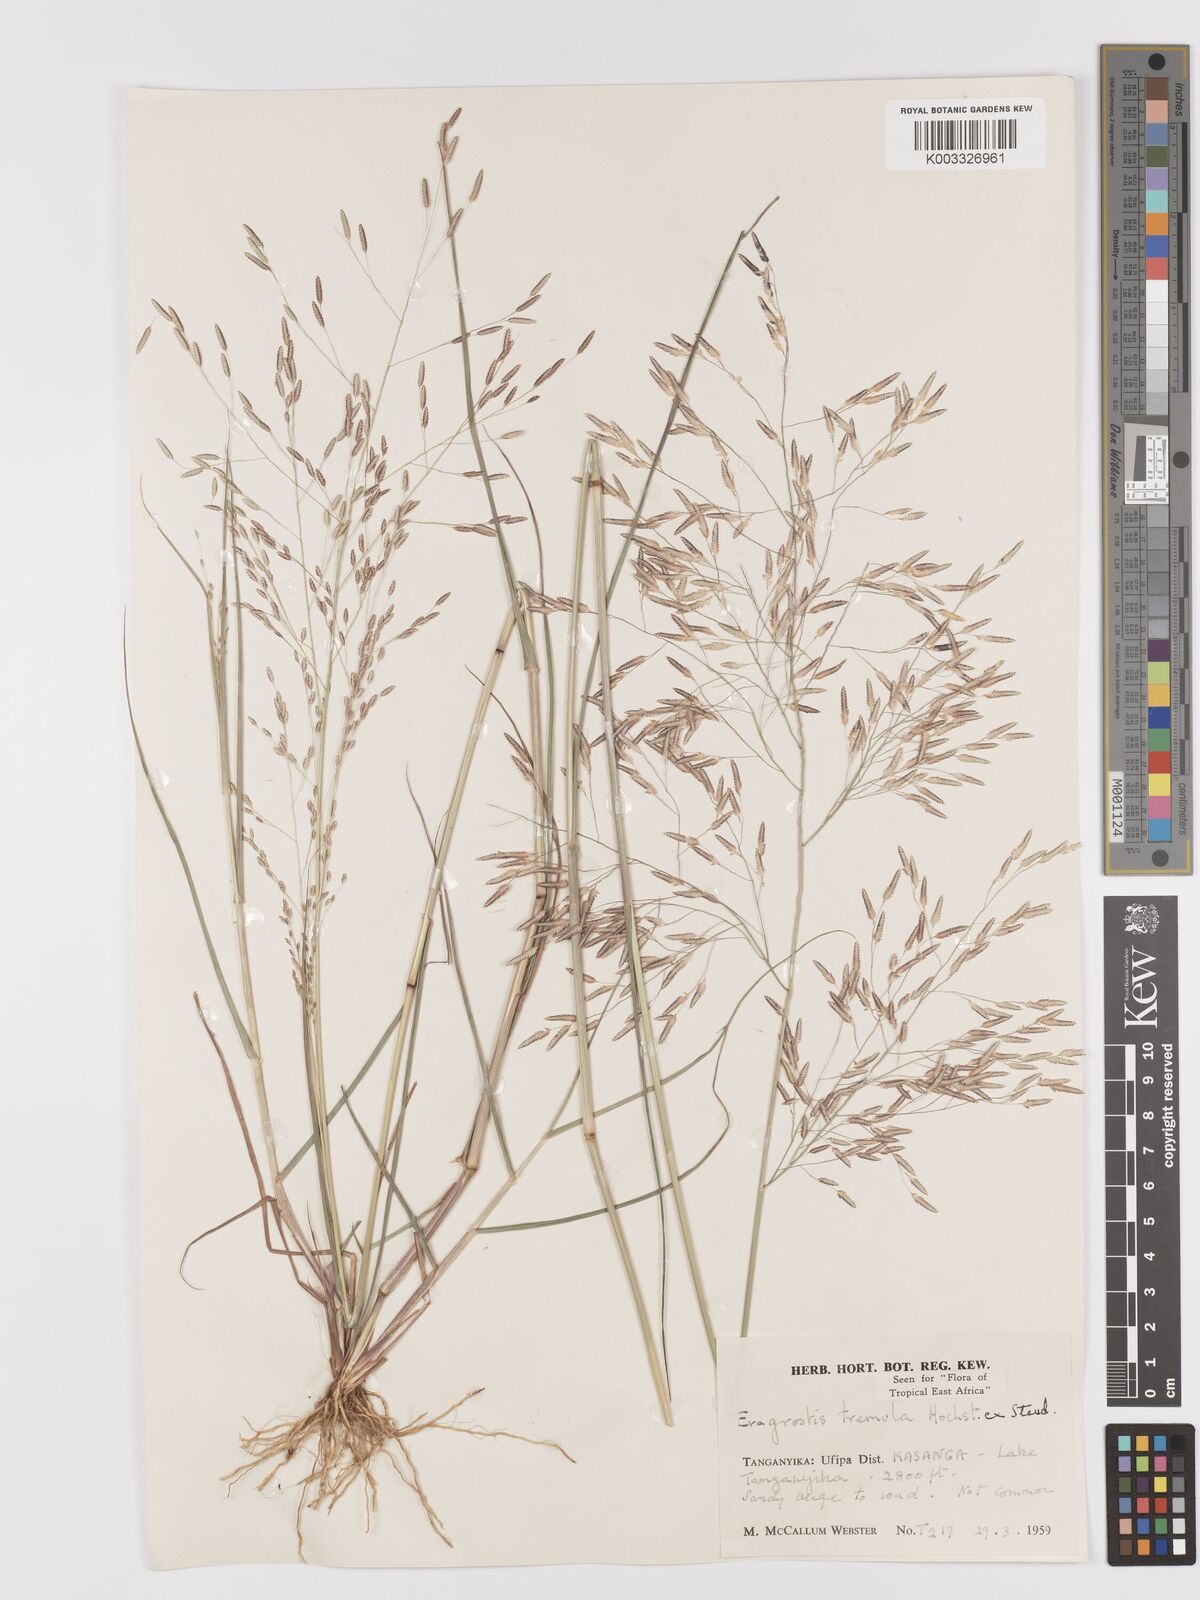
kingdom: Plantae
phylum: Tracheophyta
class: Liliopsida
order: Poales
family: Poaceae
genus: Eragrostis
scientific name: Eragrostis tremula
